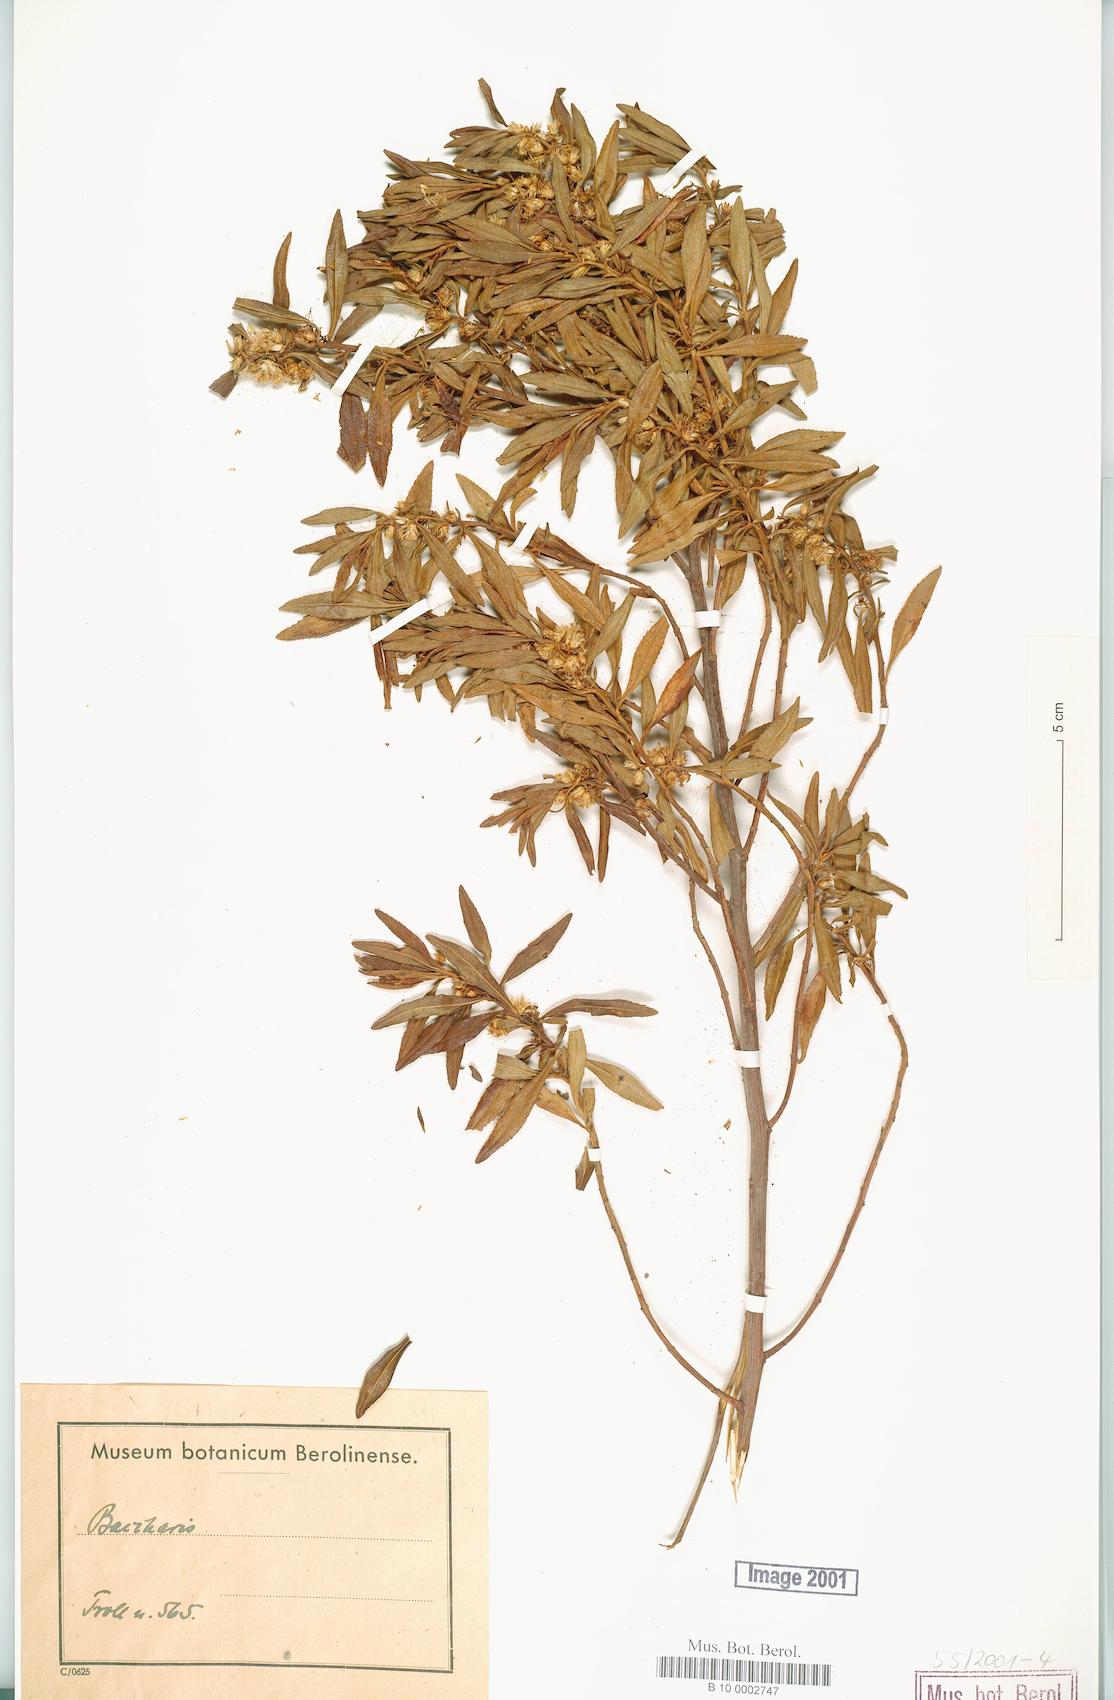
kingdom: Plantae
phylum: Tracheophyta
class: Magnoliopsida
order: Asterales
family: Asteraceae
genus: Baccharis
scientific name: Baccharis
